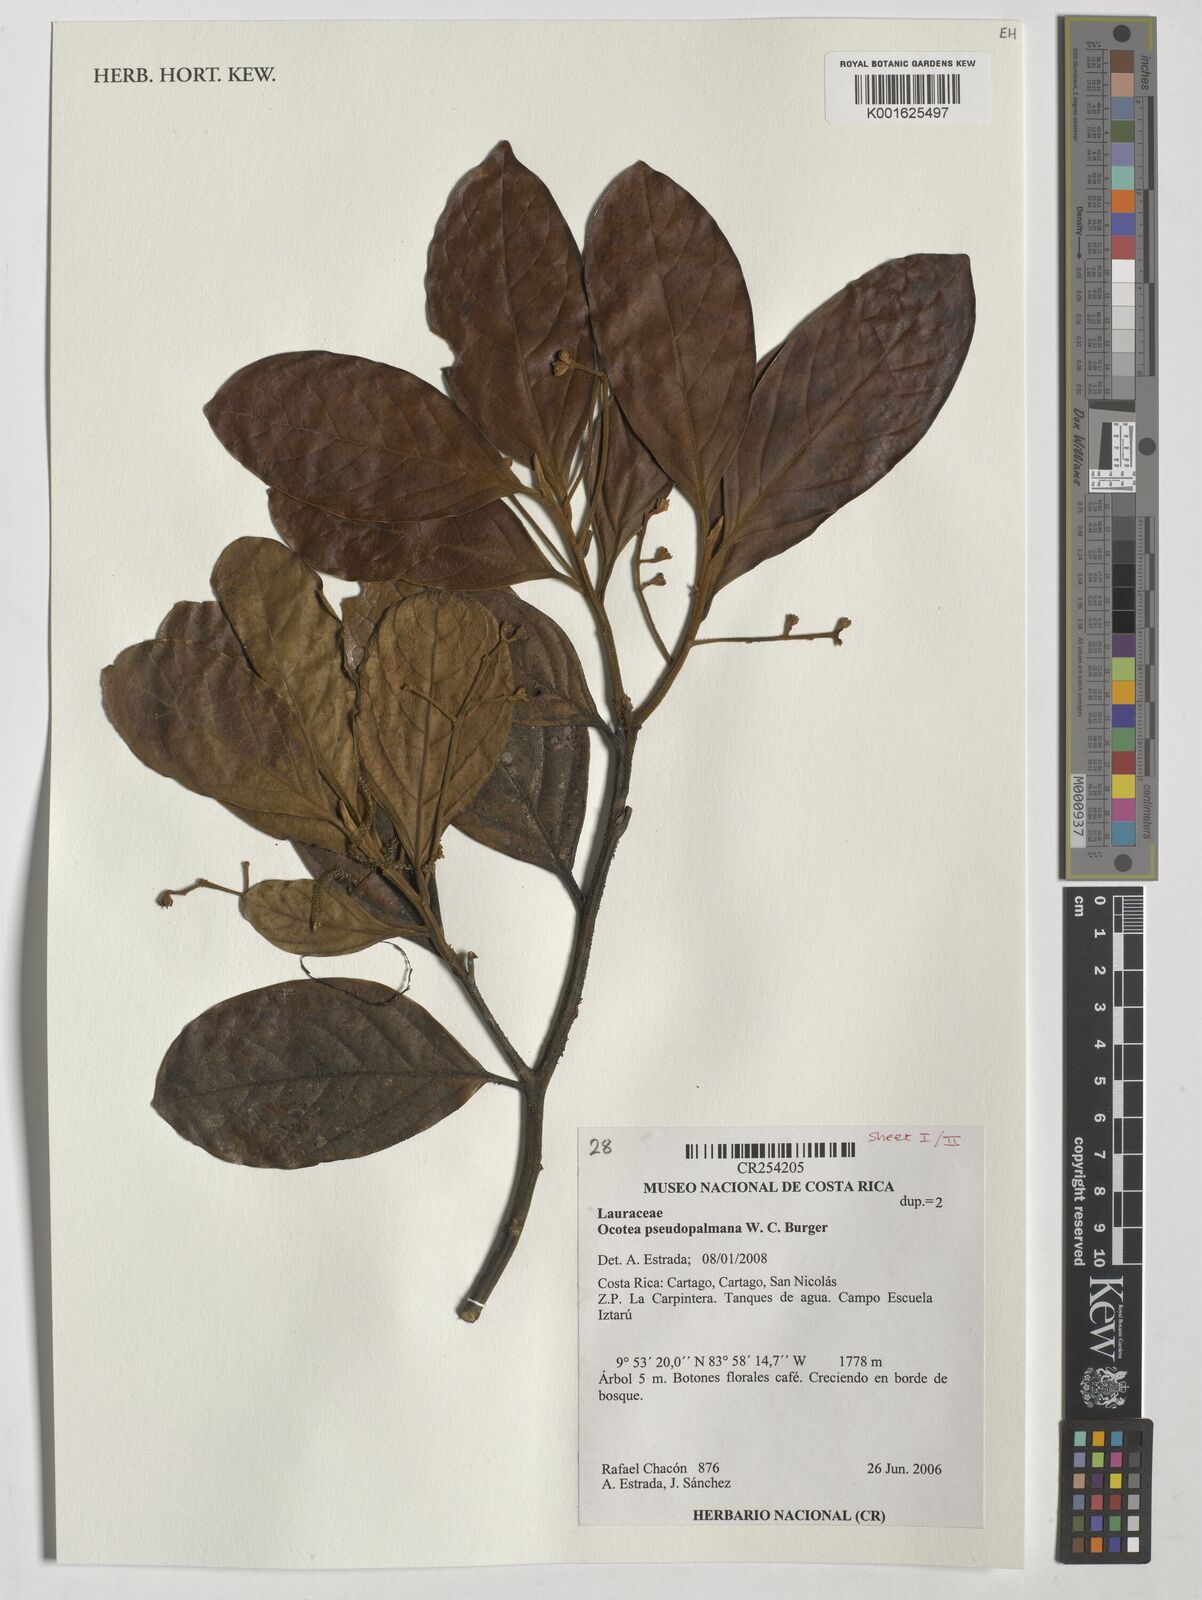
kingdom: Plantae
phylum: Tracheophyta
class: Magnoliopsida
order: Laurales
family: Lauraceae
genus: Ocotea
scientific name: Ocotea pseudopalmana
